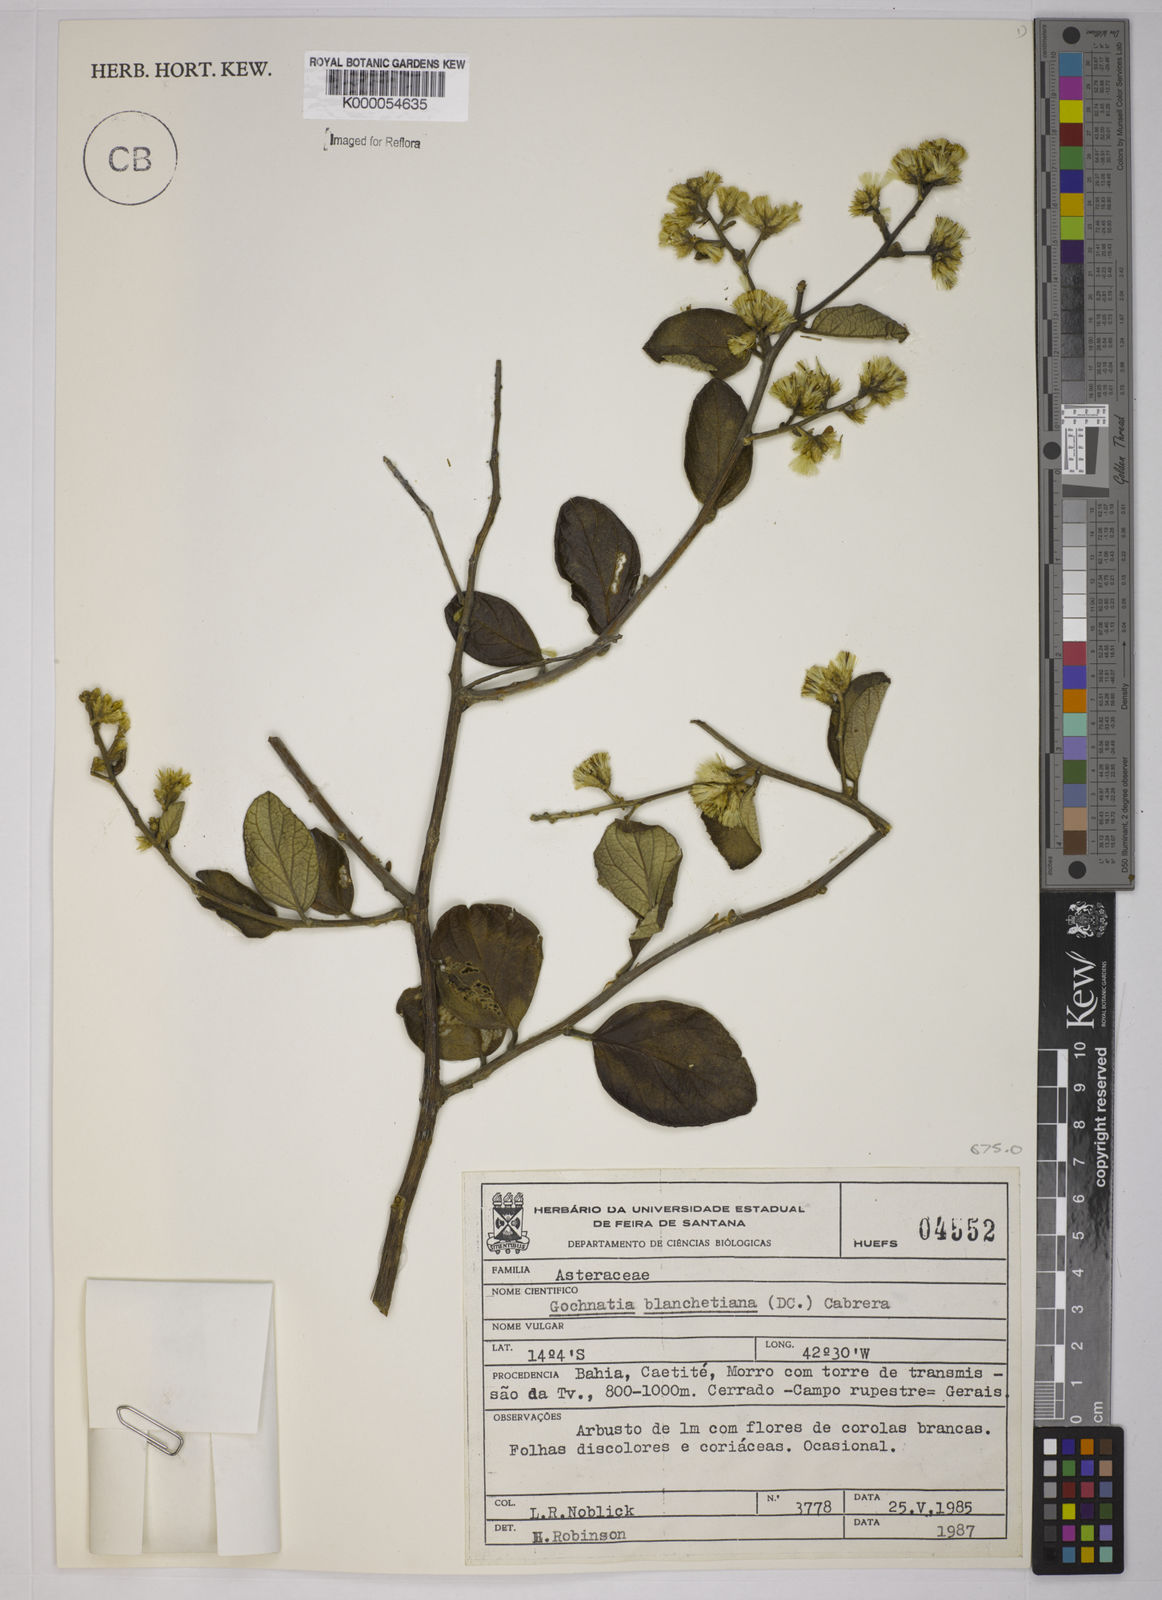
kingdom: Plantae
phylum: Tracheophyta
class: Magnoliopsida
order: Asterales
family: Asteraceae
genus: Moquiniastrum
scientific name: Moquiniastrum blanchetianum
